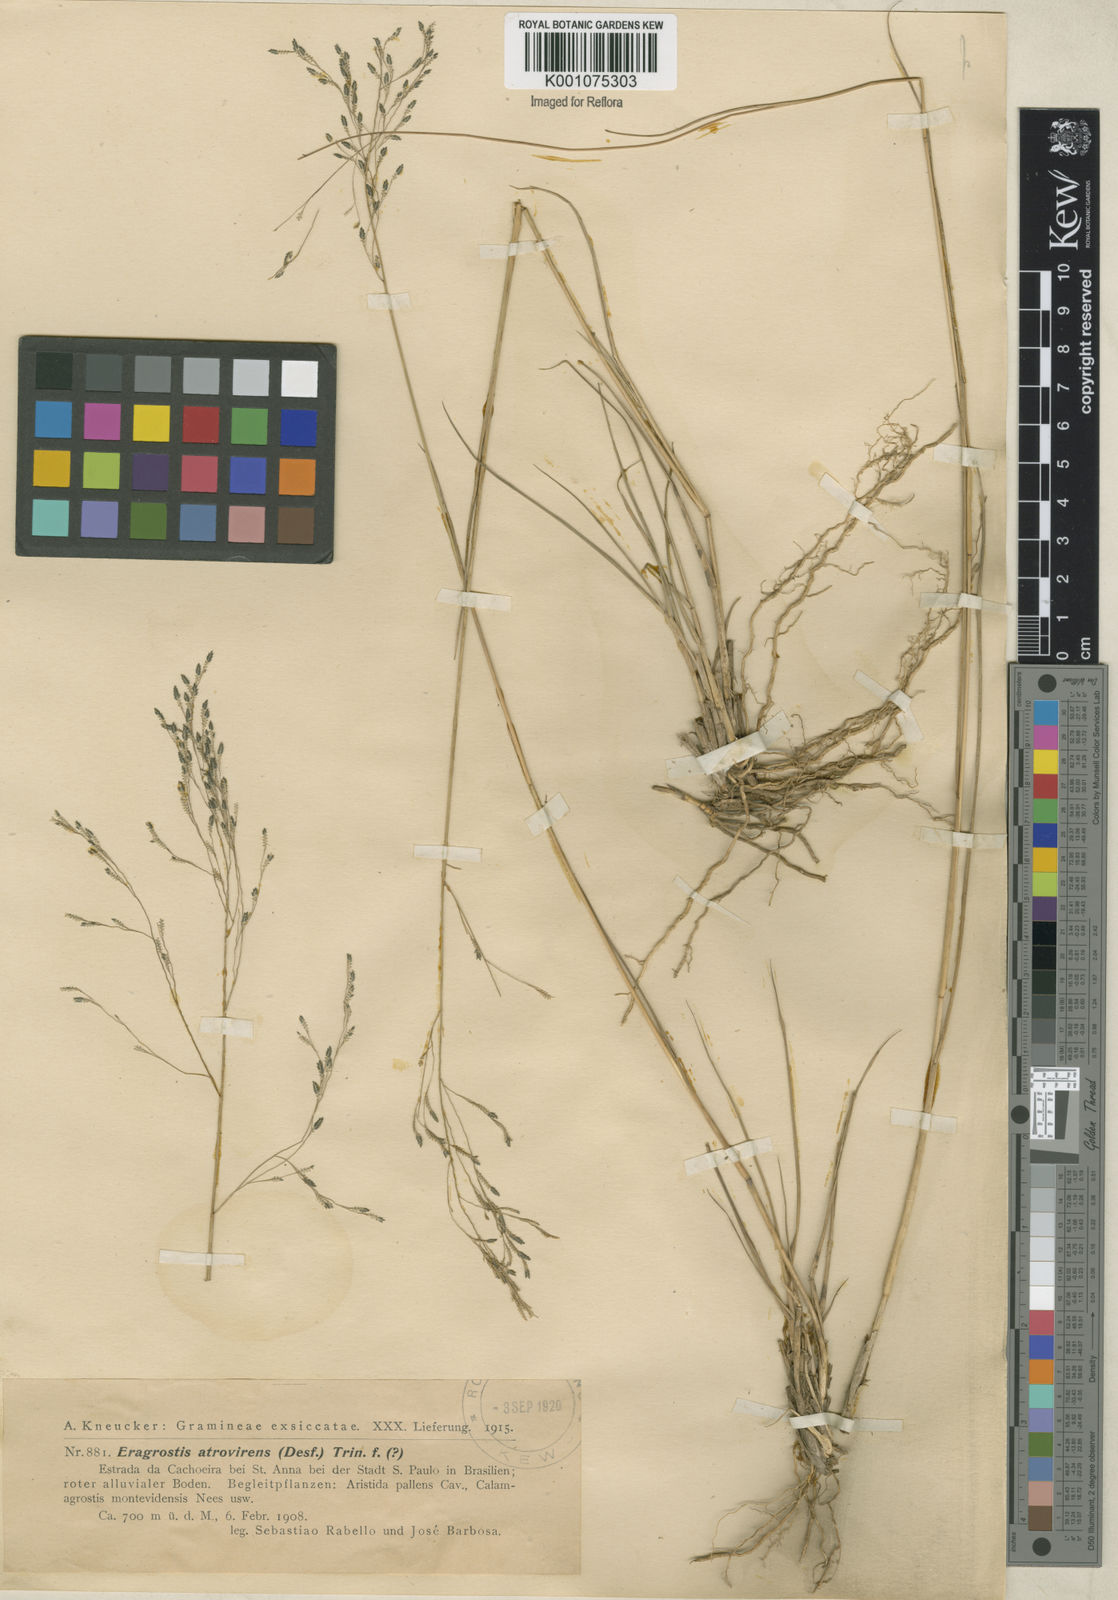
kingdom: Plantae
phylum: Tracheophyta
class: Liliopsida
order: Poales
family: Poaceae
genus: Eragrostis
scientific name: Eragrostis bahiensis
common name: Bahia lovegrass
